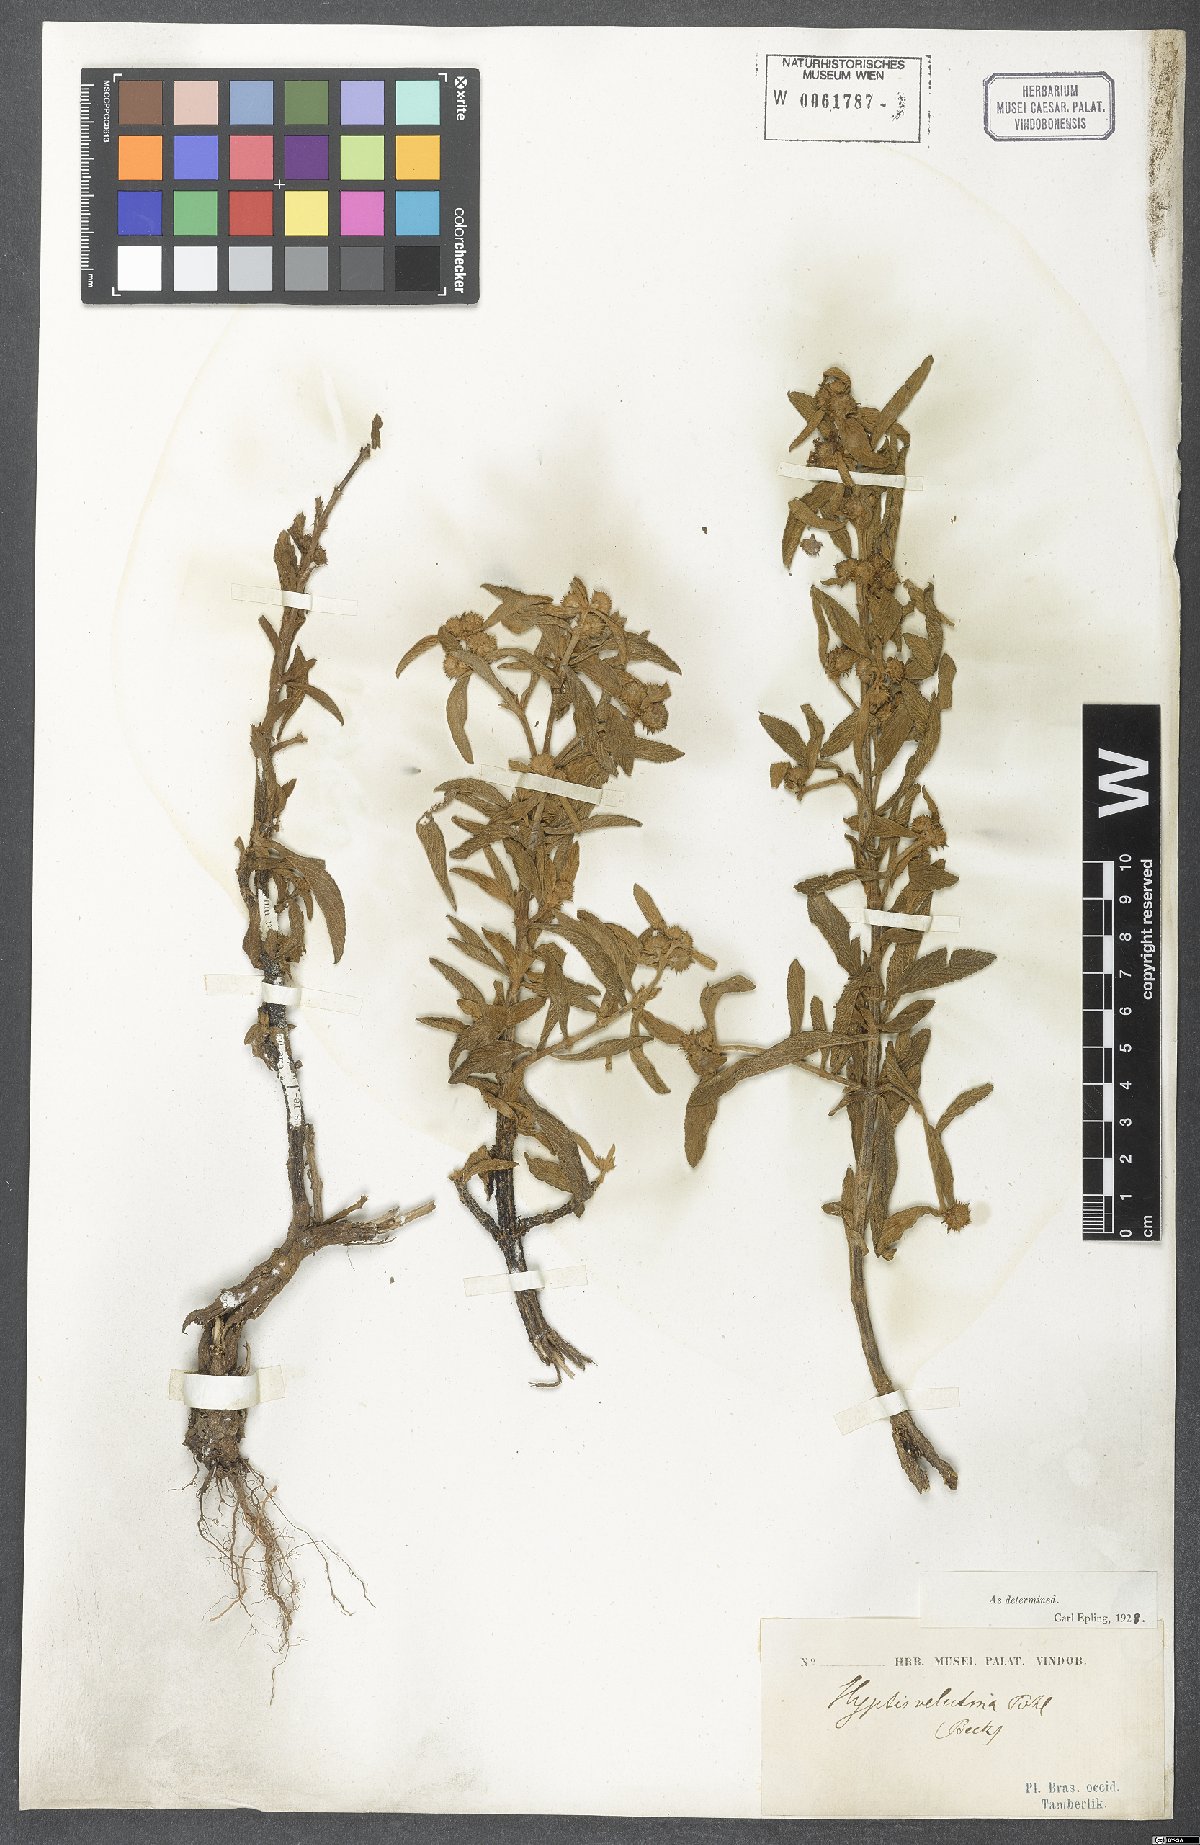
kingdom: Plantae
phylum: Tracheophyta
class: Magnoliopsida
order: Lamiales
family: Lamiaceae
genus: Hyptis
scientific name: Hyptis velutina
